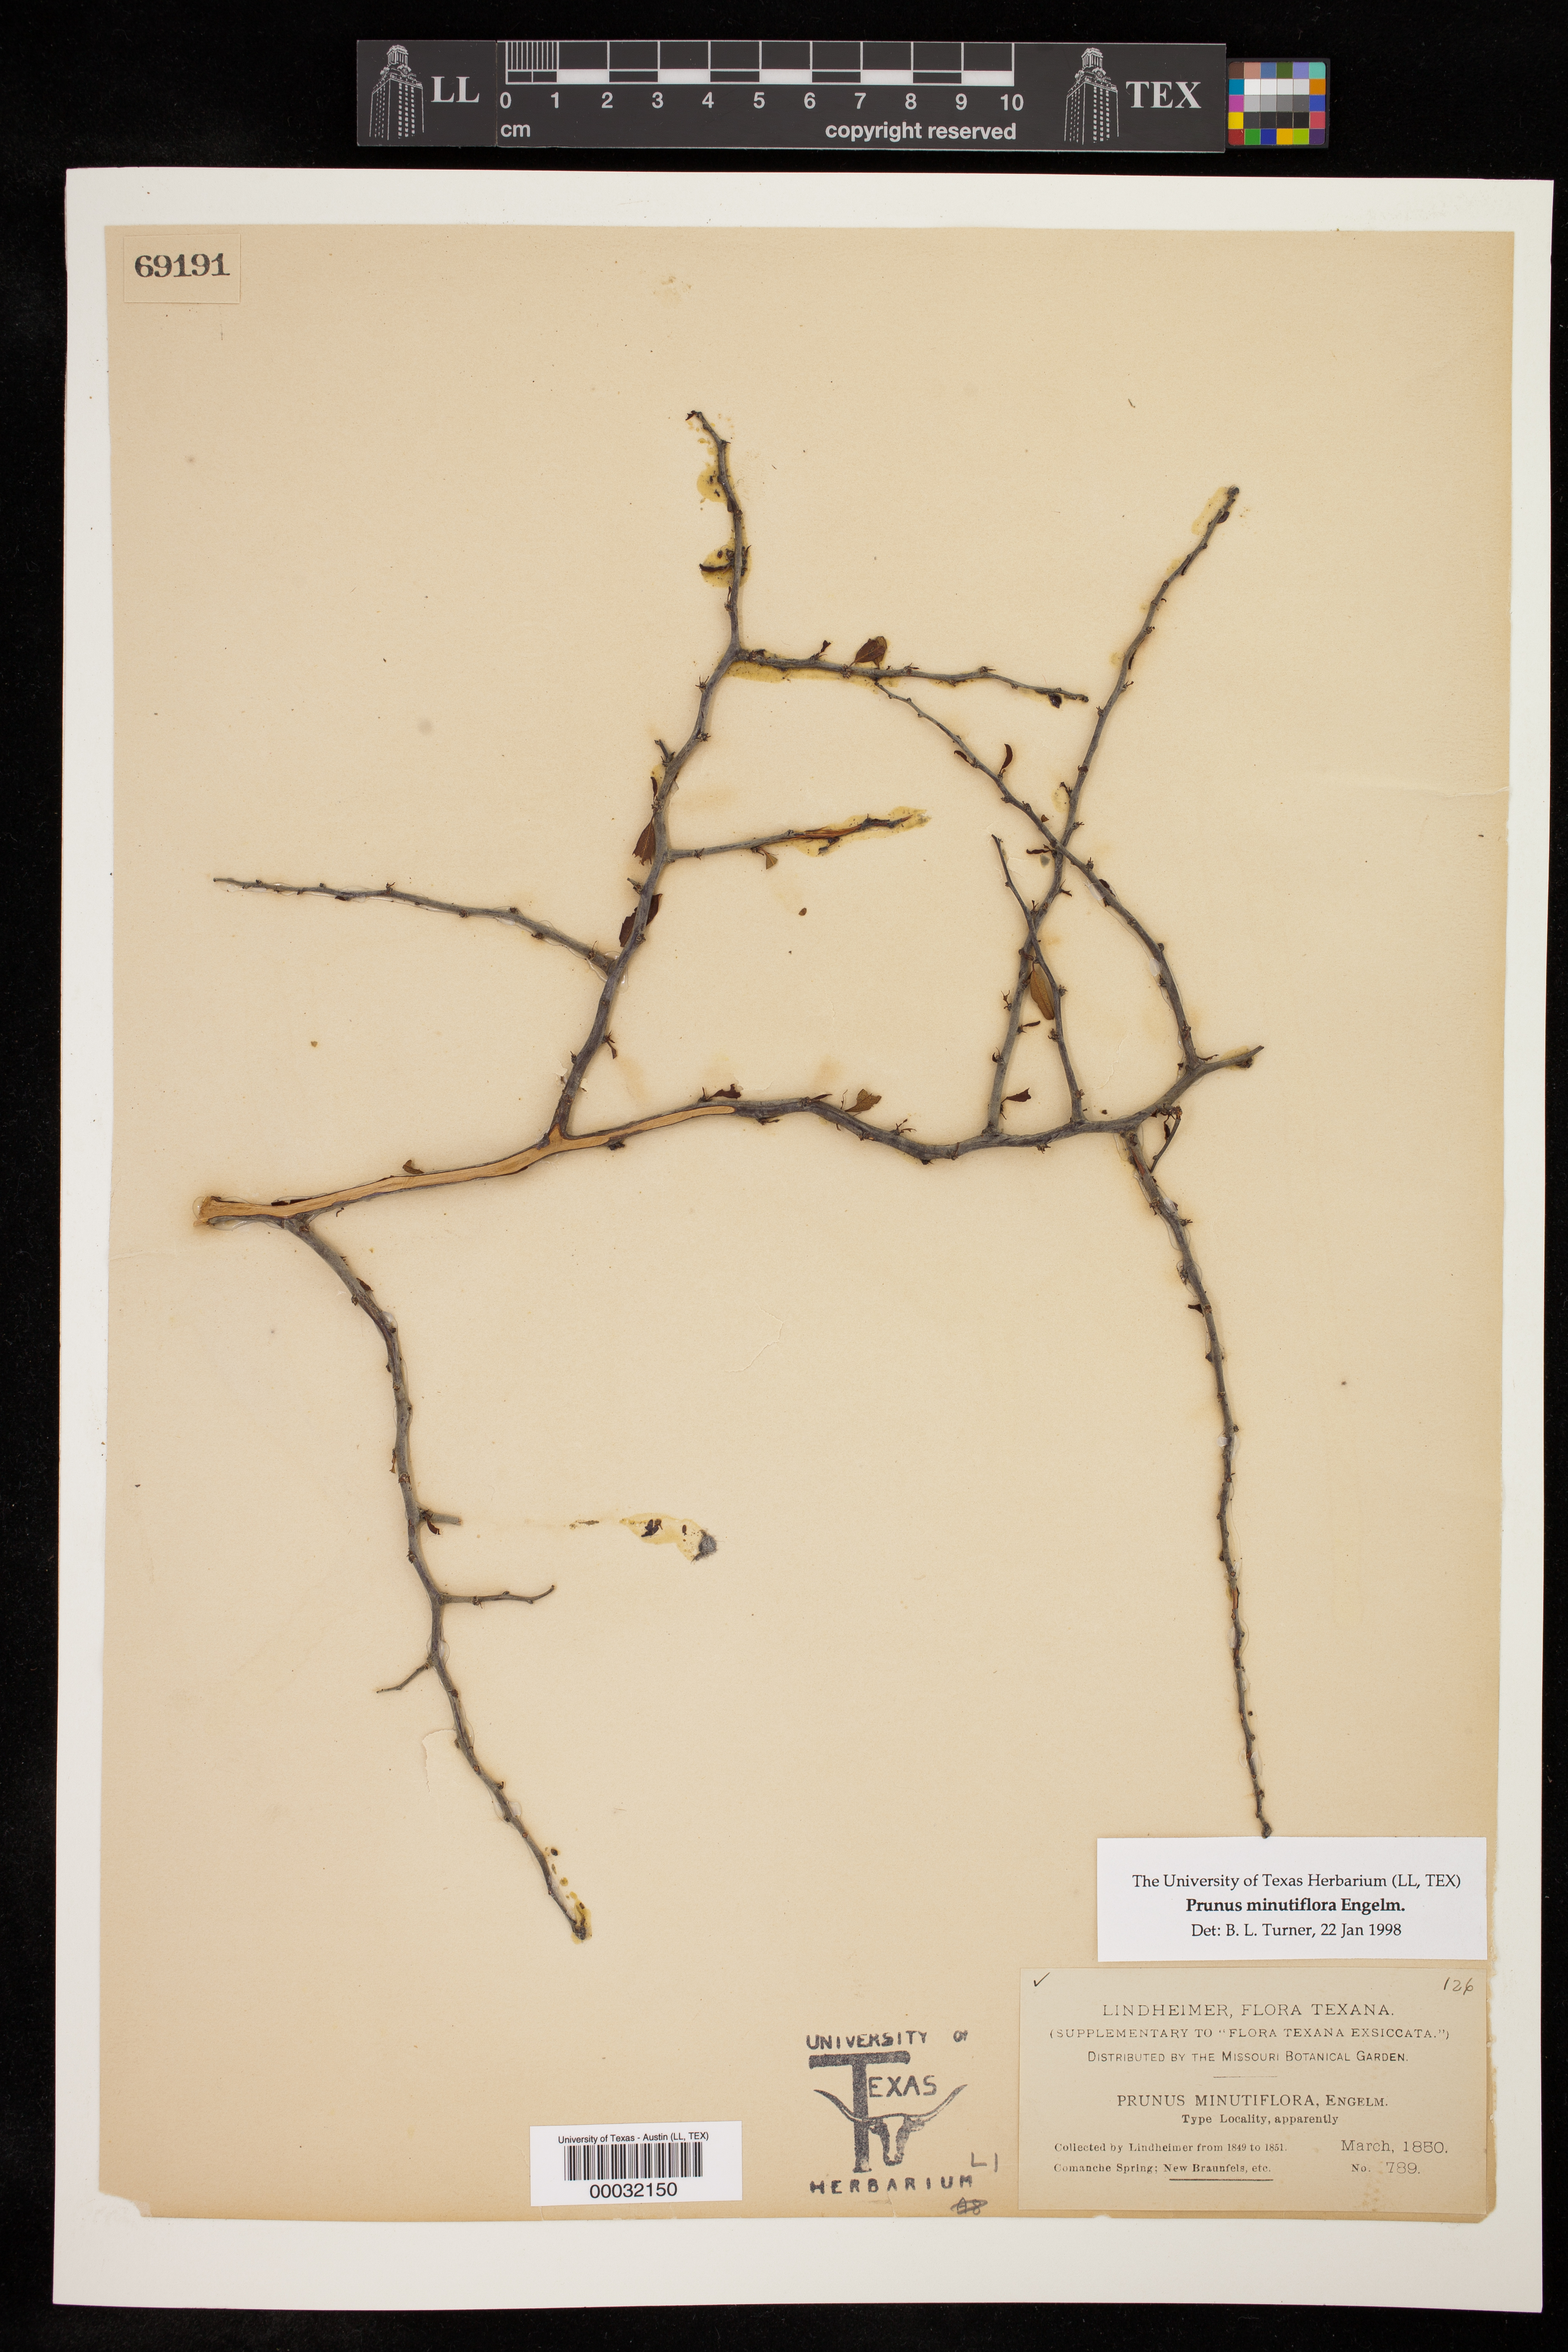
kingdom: Plantae
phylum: Tracheophyta
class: Magnoliopsida
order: Rosales
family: Rosaceae
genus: Prunus
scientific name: Prunus minutiflora
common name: Texas almond
